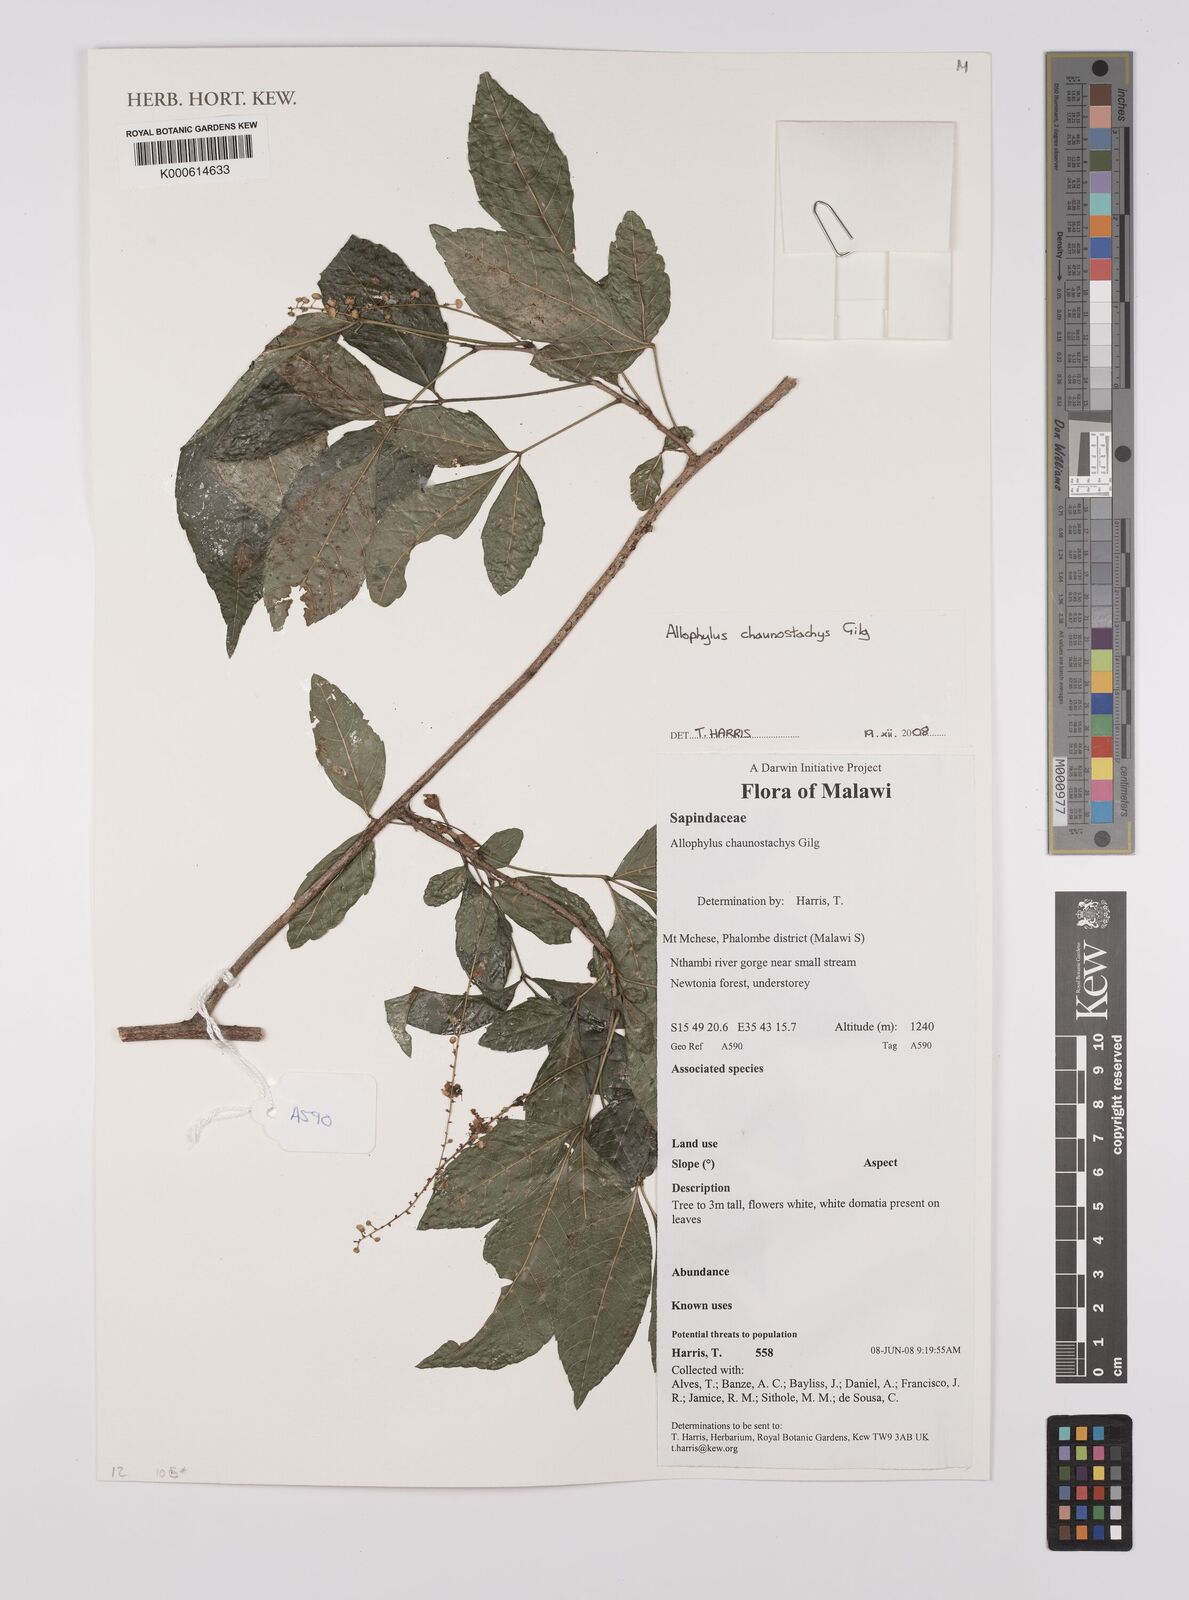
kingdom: Plantae
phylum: Tracheophyta
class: Magnoliopsida
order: Sapindales
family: Sapindaceae
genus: Allophylus
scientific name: Allophylus chaunostachys
